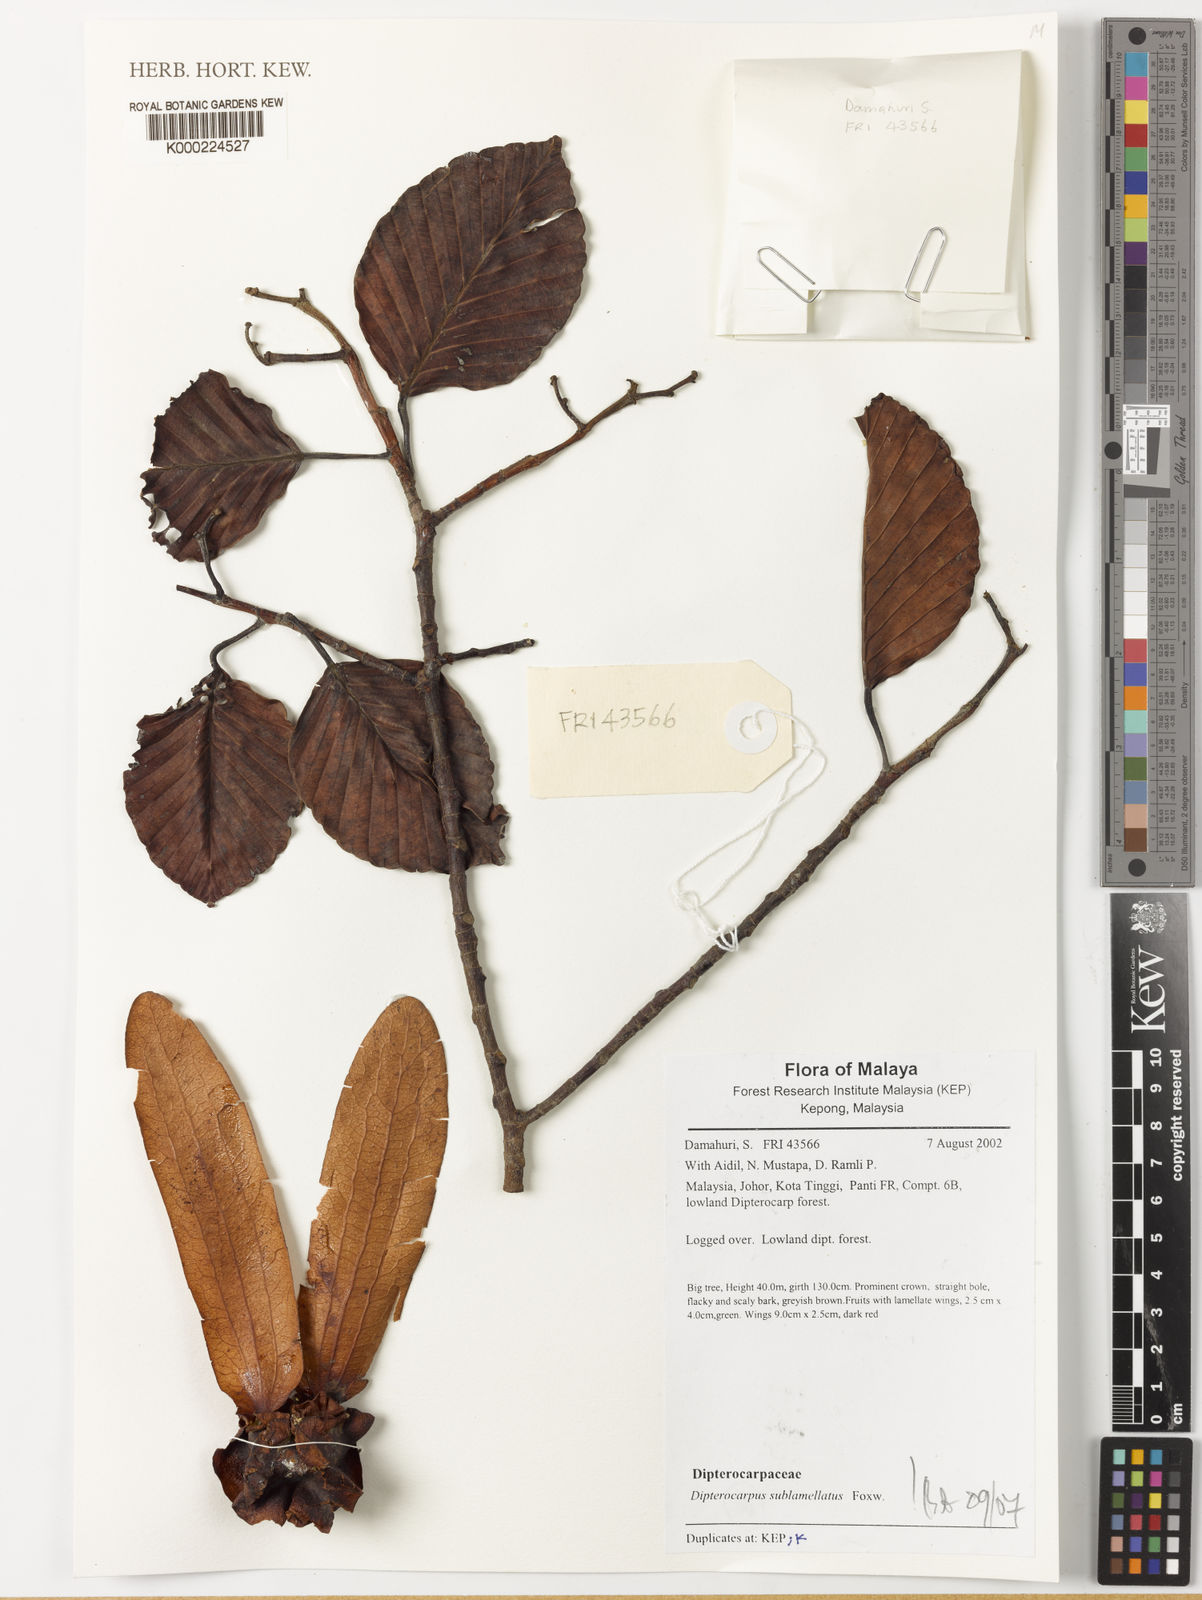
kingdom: Plantae
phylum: Tracheophyta
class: Magnoliopsida
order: Malvales
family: Dipterocarpaceae
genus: Dipterocarpus
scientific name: Dipterocarpus sublamellatus
